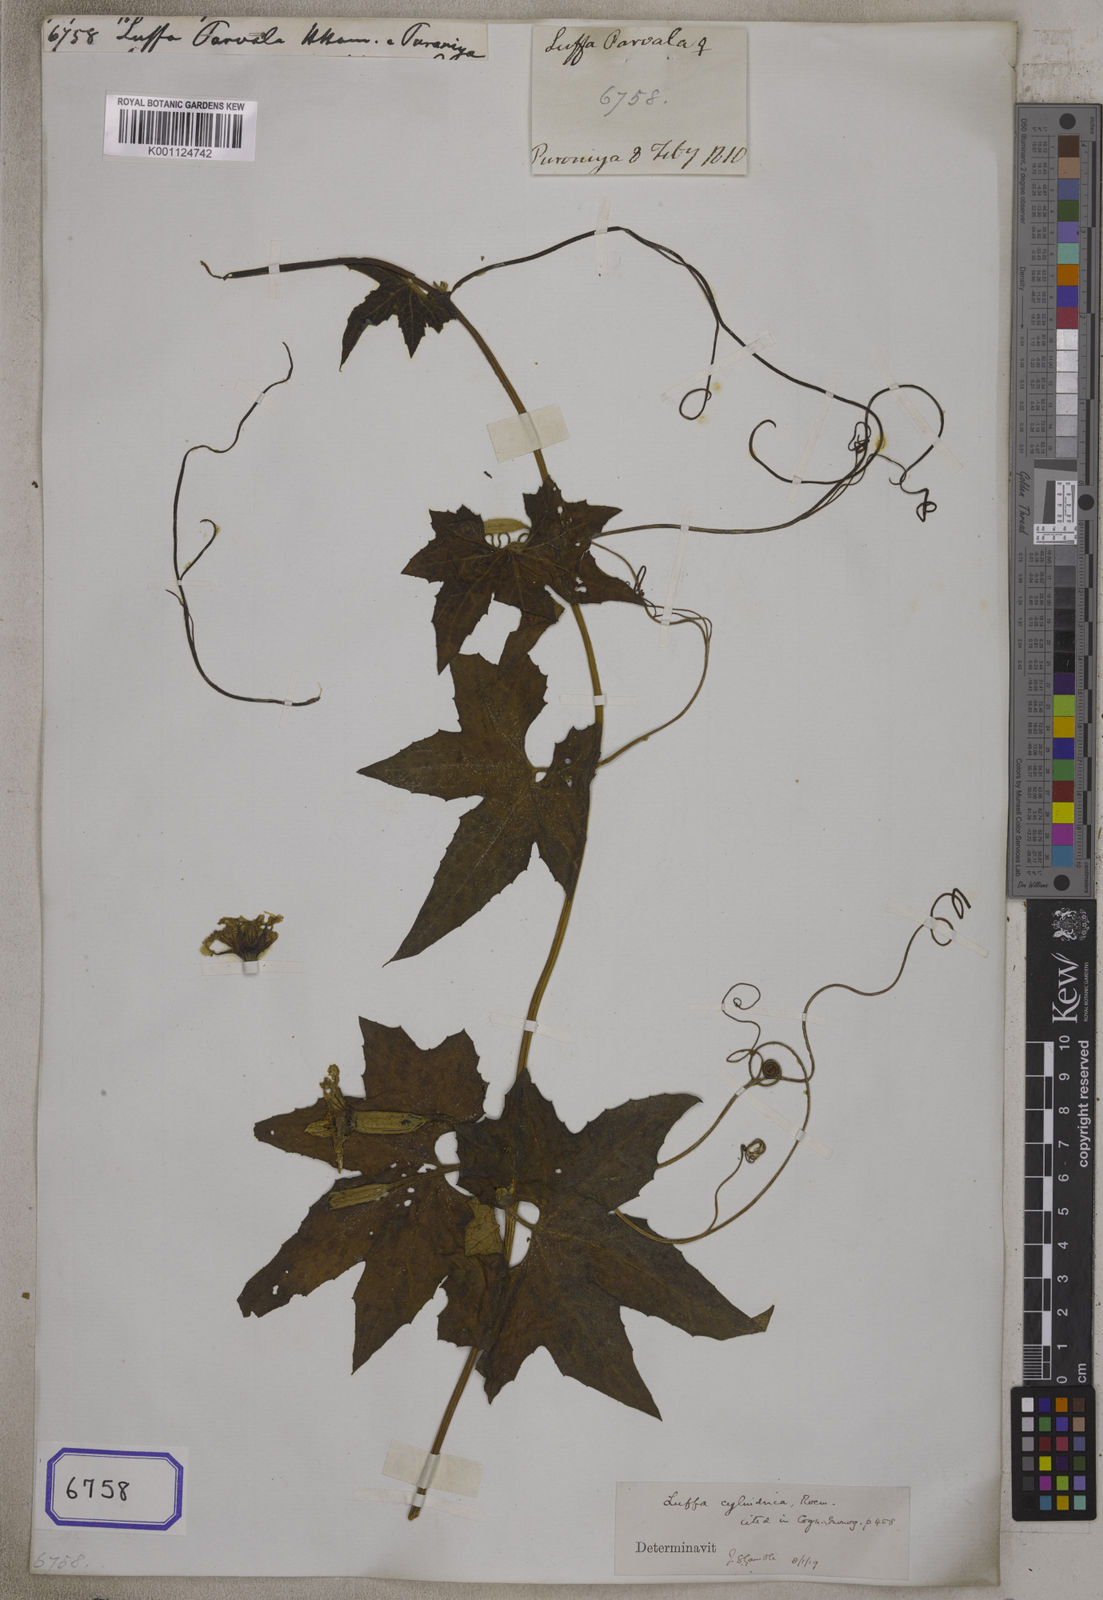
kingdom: Plantae
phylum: Tracheophyta
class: Magnoliopsida
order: Cucurbitales
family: Cucurbitaceae
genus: Cucumis
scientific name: Cucumis melo
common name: Melon
